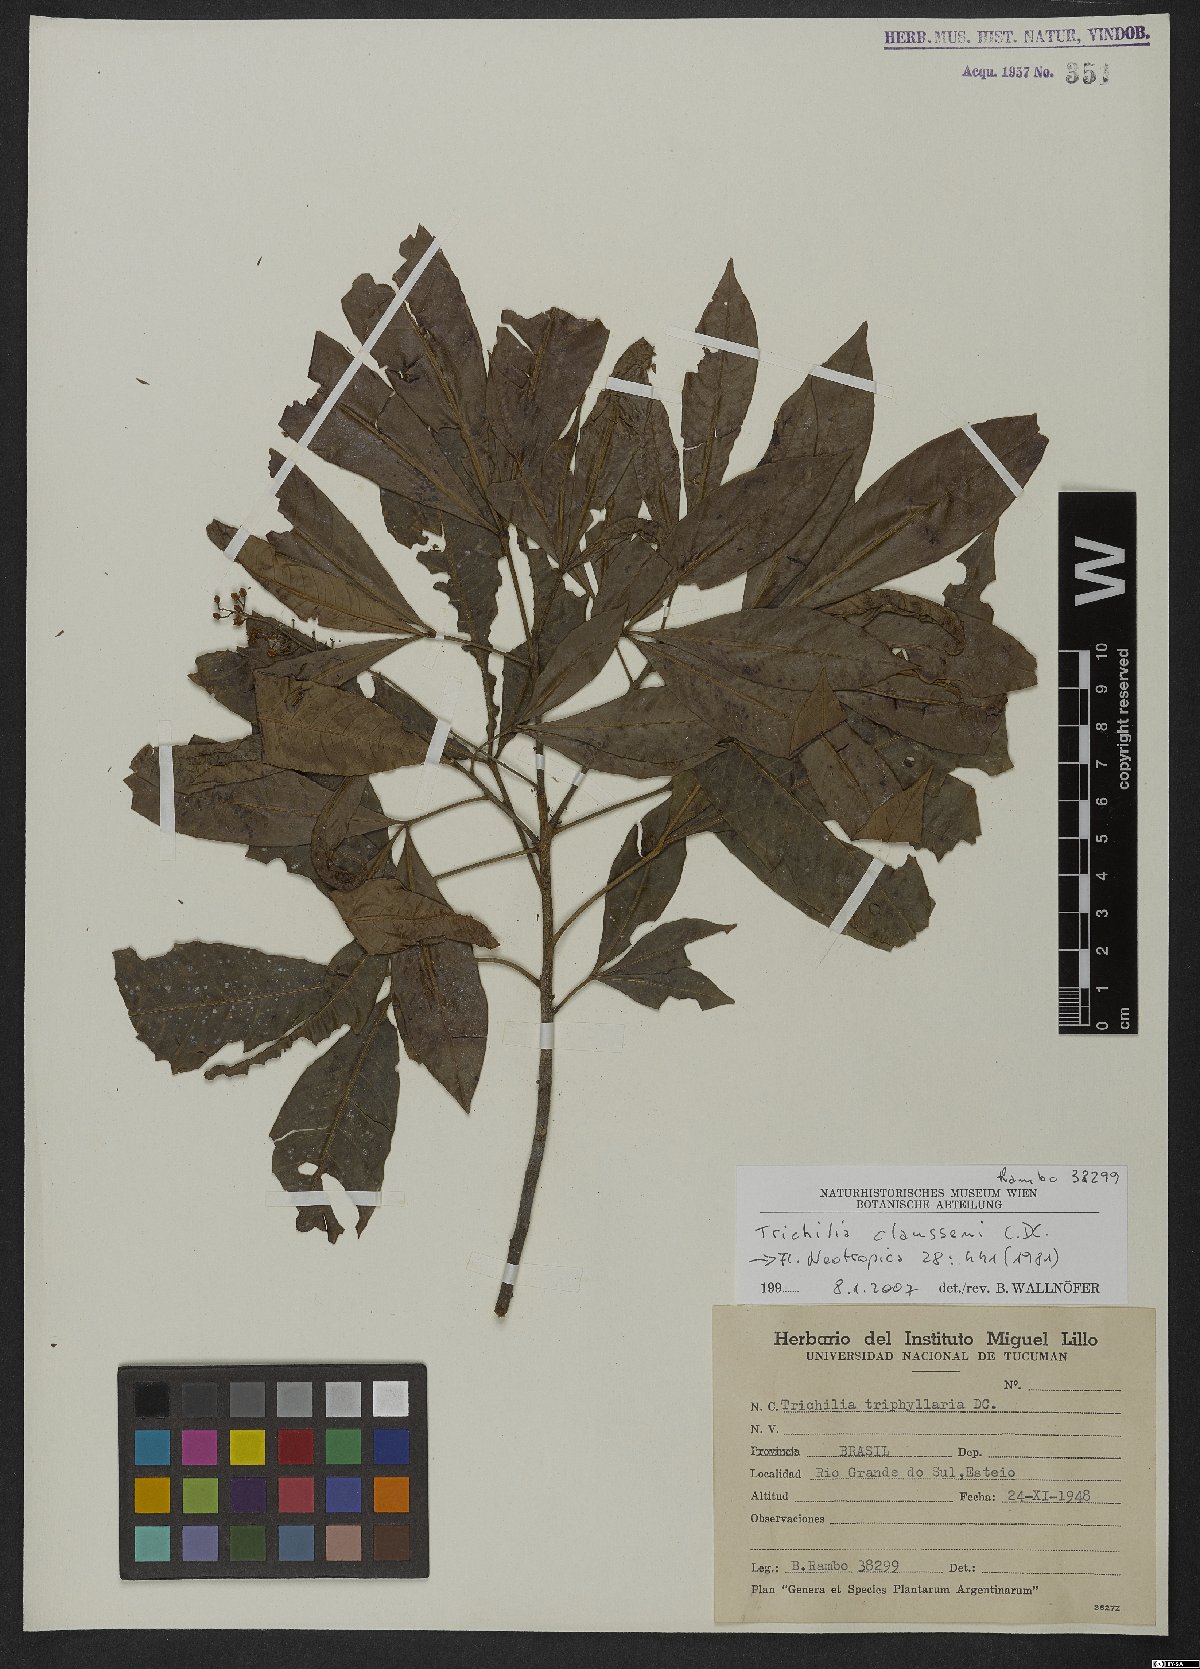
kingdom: Plantae
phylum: Tracheophyta
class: Magnoliopsida
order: Sapindales
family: Meliaceae
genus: Trichilia
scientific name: Trichilia claussenii
